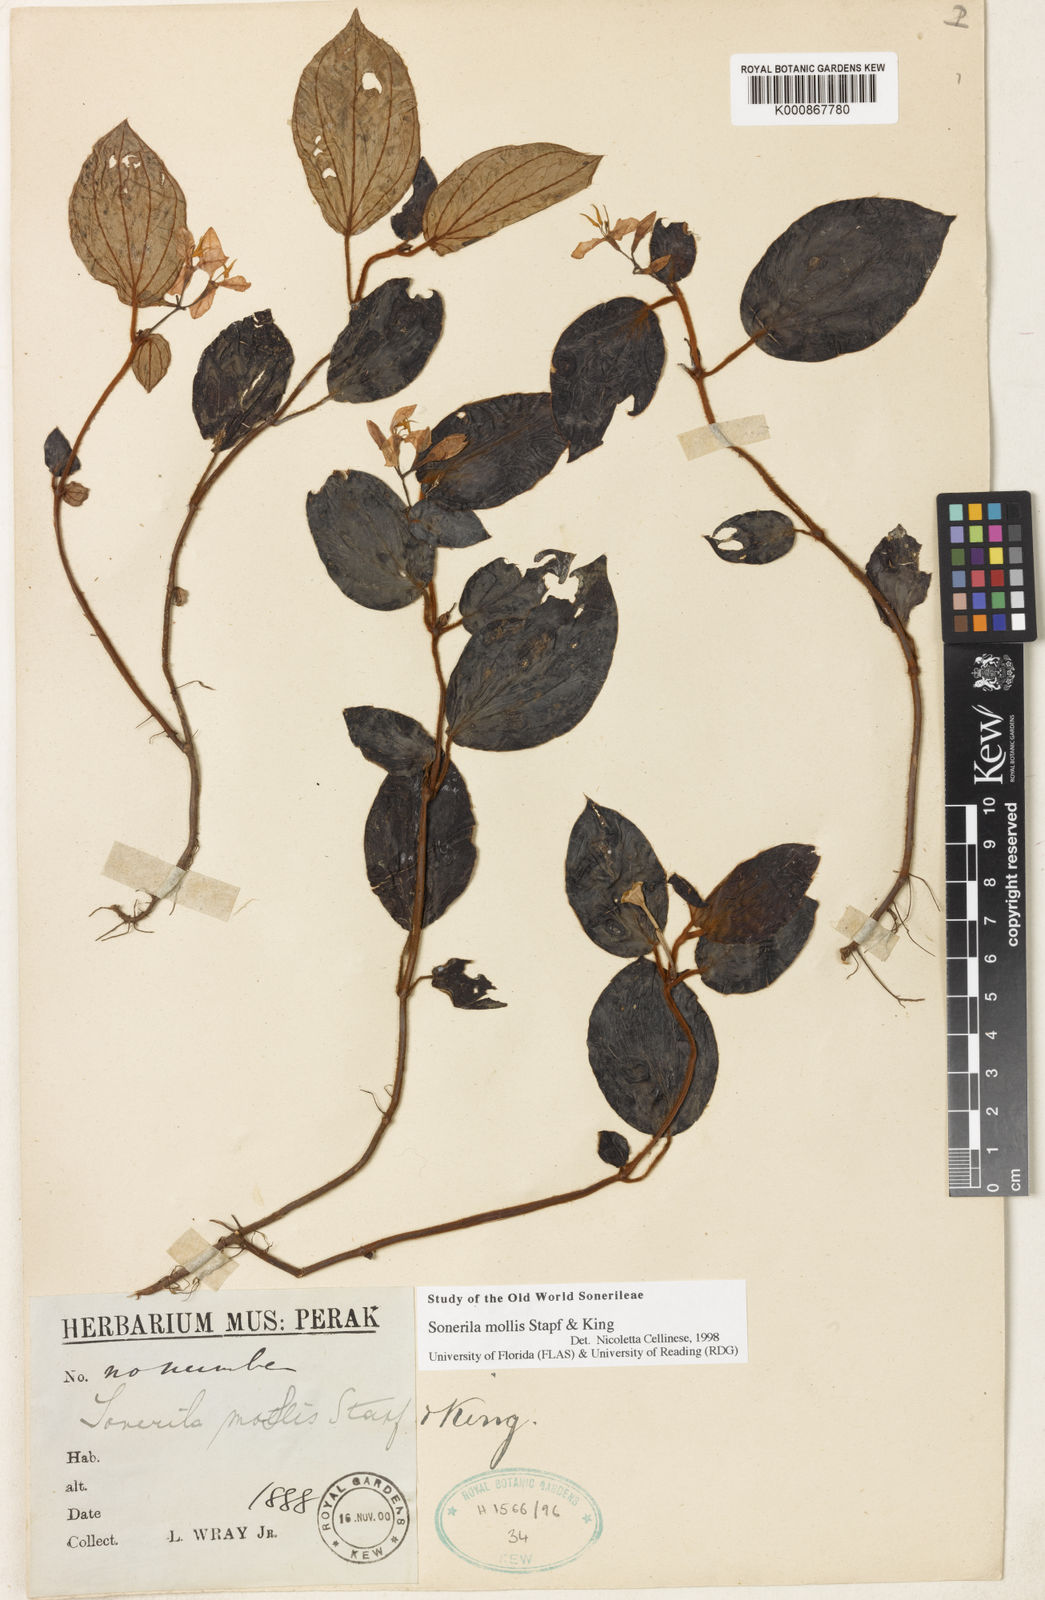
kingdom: Plantae
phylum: Tracheophyta
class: Magnoliopsida
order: Myrtales
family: Melastomataceae
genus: Sonerila
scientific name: Sonerila mollis
